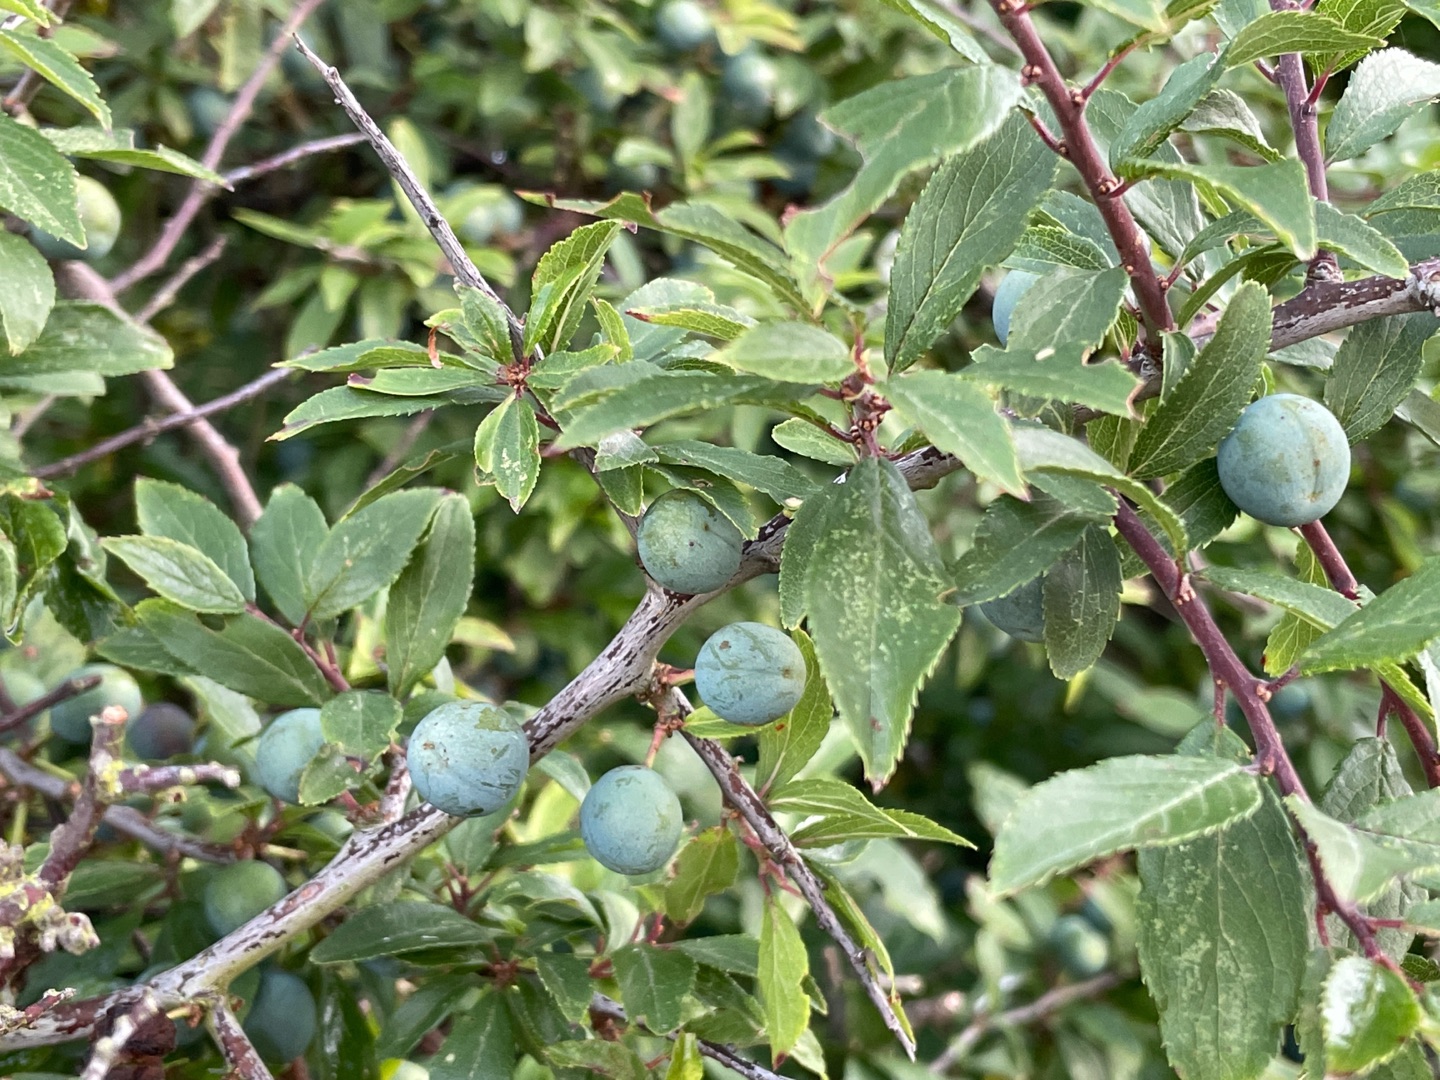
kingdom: Plantae
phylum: Tracheophyta
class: Magnoliopsida
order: Rosales
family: Rosaceae
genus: Prunus
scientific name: Prunus spinosa
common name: Slåen
